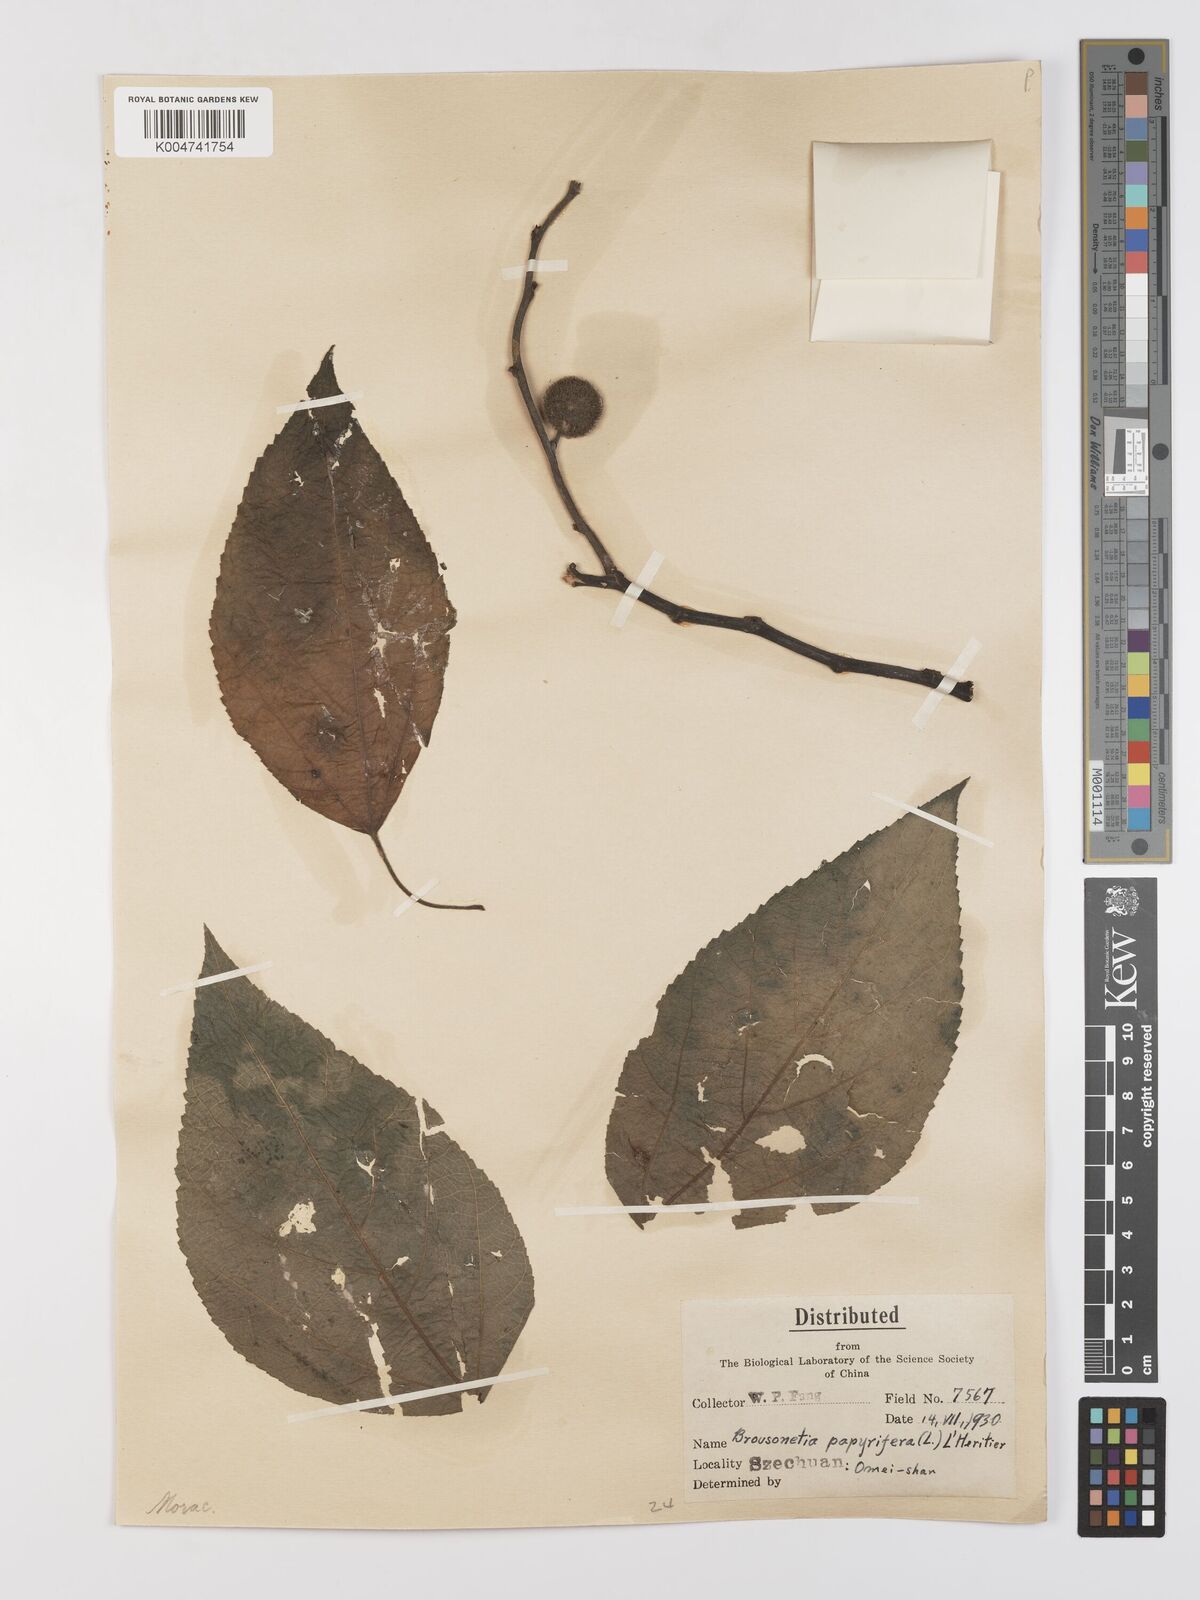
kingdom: Plantae
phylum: Tracheophyta
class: Magnoliopsida
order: Rosales
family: Moraceae
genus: Broussonetia
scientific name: Broussonetia
